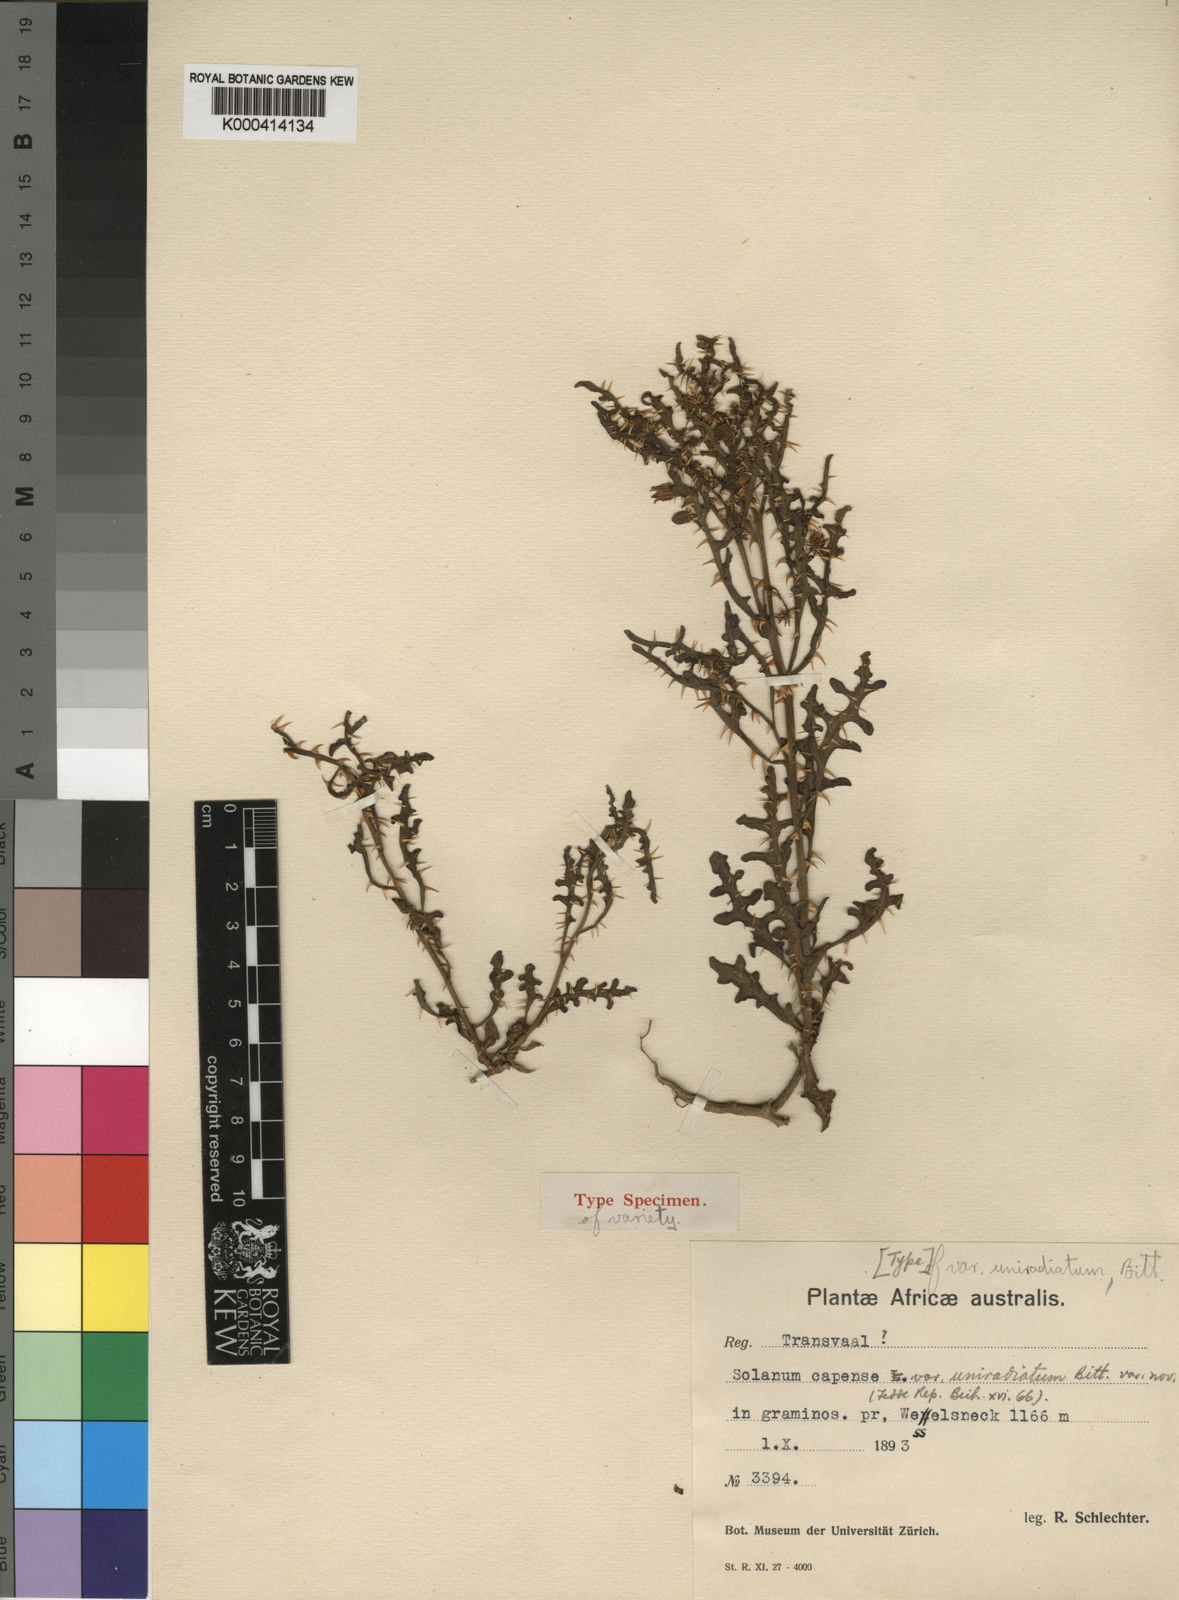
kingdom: Plantae
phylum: Tracheophyta
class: Magnoliopsida
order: Solanales
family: Solanaceae
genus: Solanum
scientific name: Solanum capense
